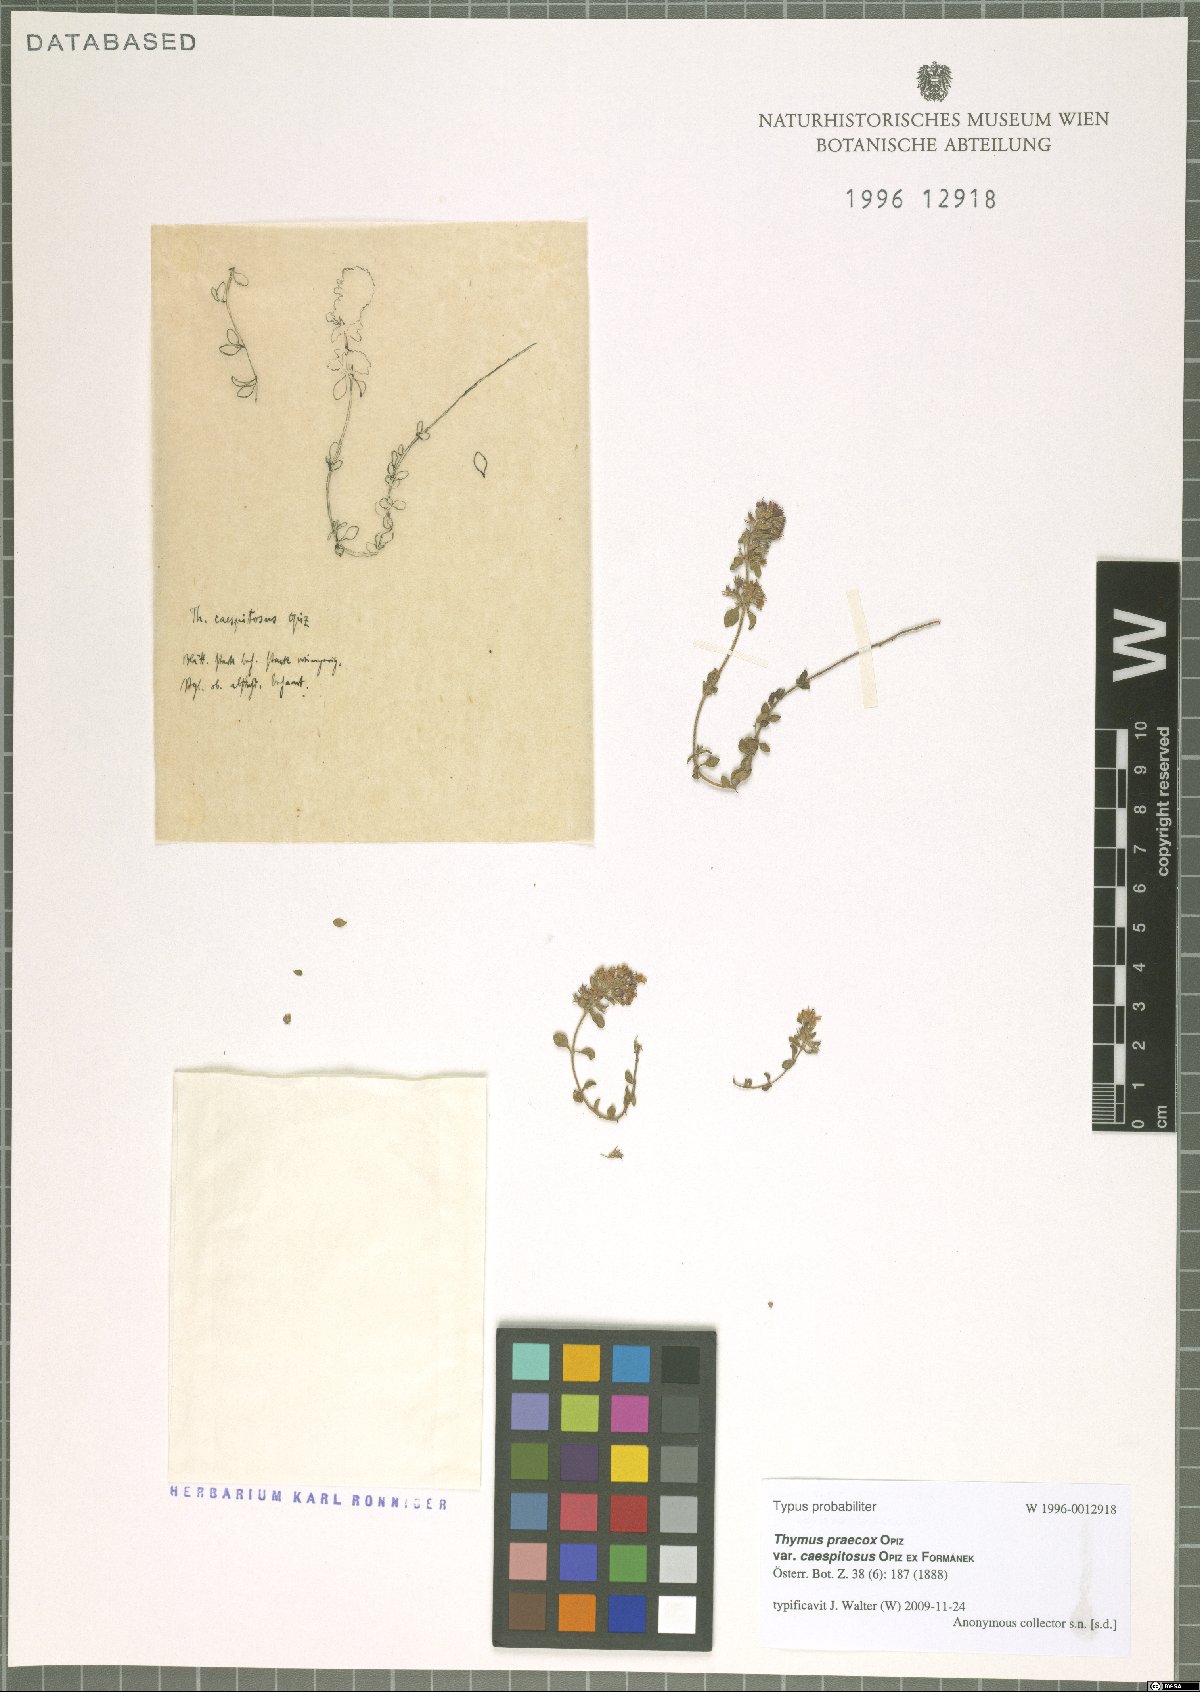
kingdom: Plantae
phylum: Tracheophyta
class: Magnoliopsida
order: Lamiales
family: Lamiaceae
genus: Thymus
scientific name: Thymus praecox
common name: Wild thyme
